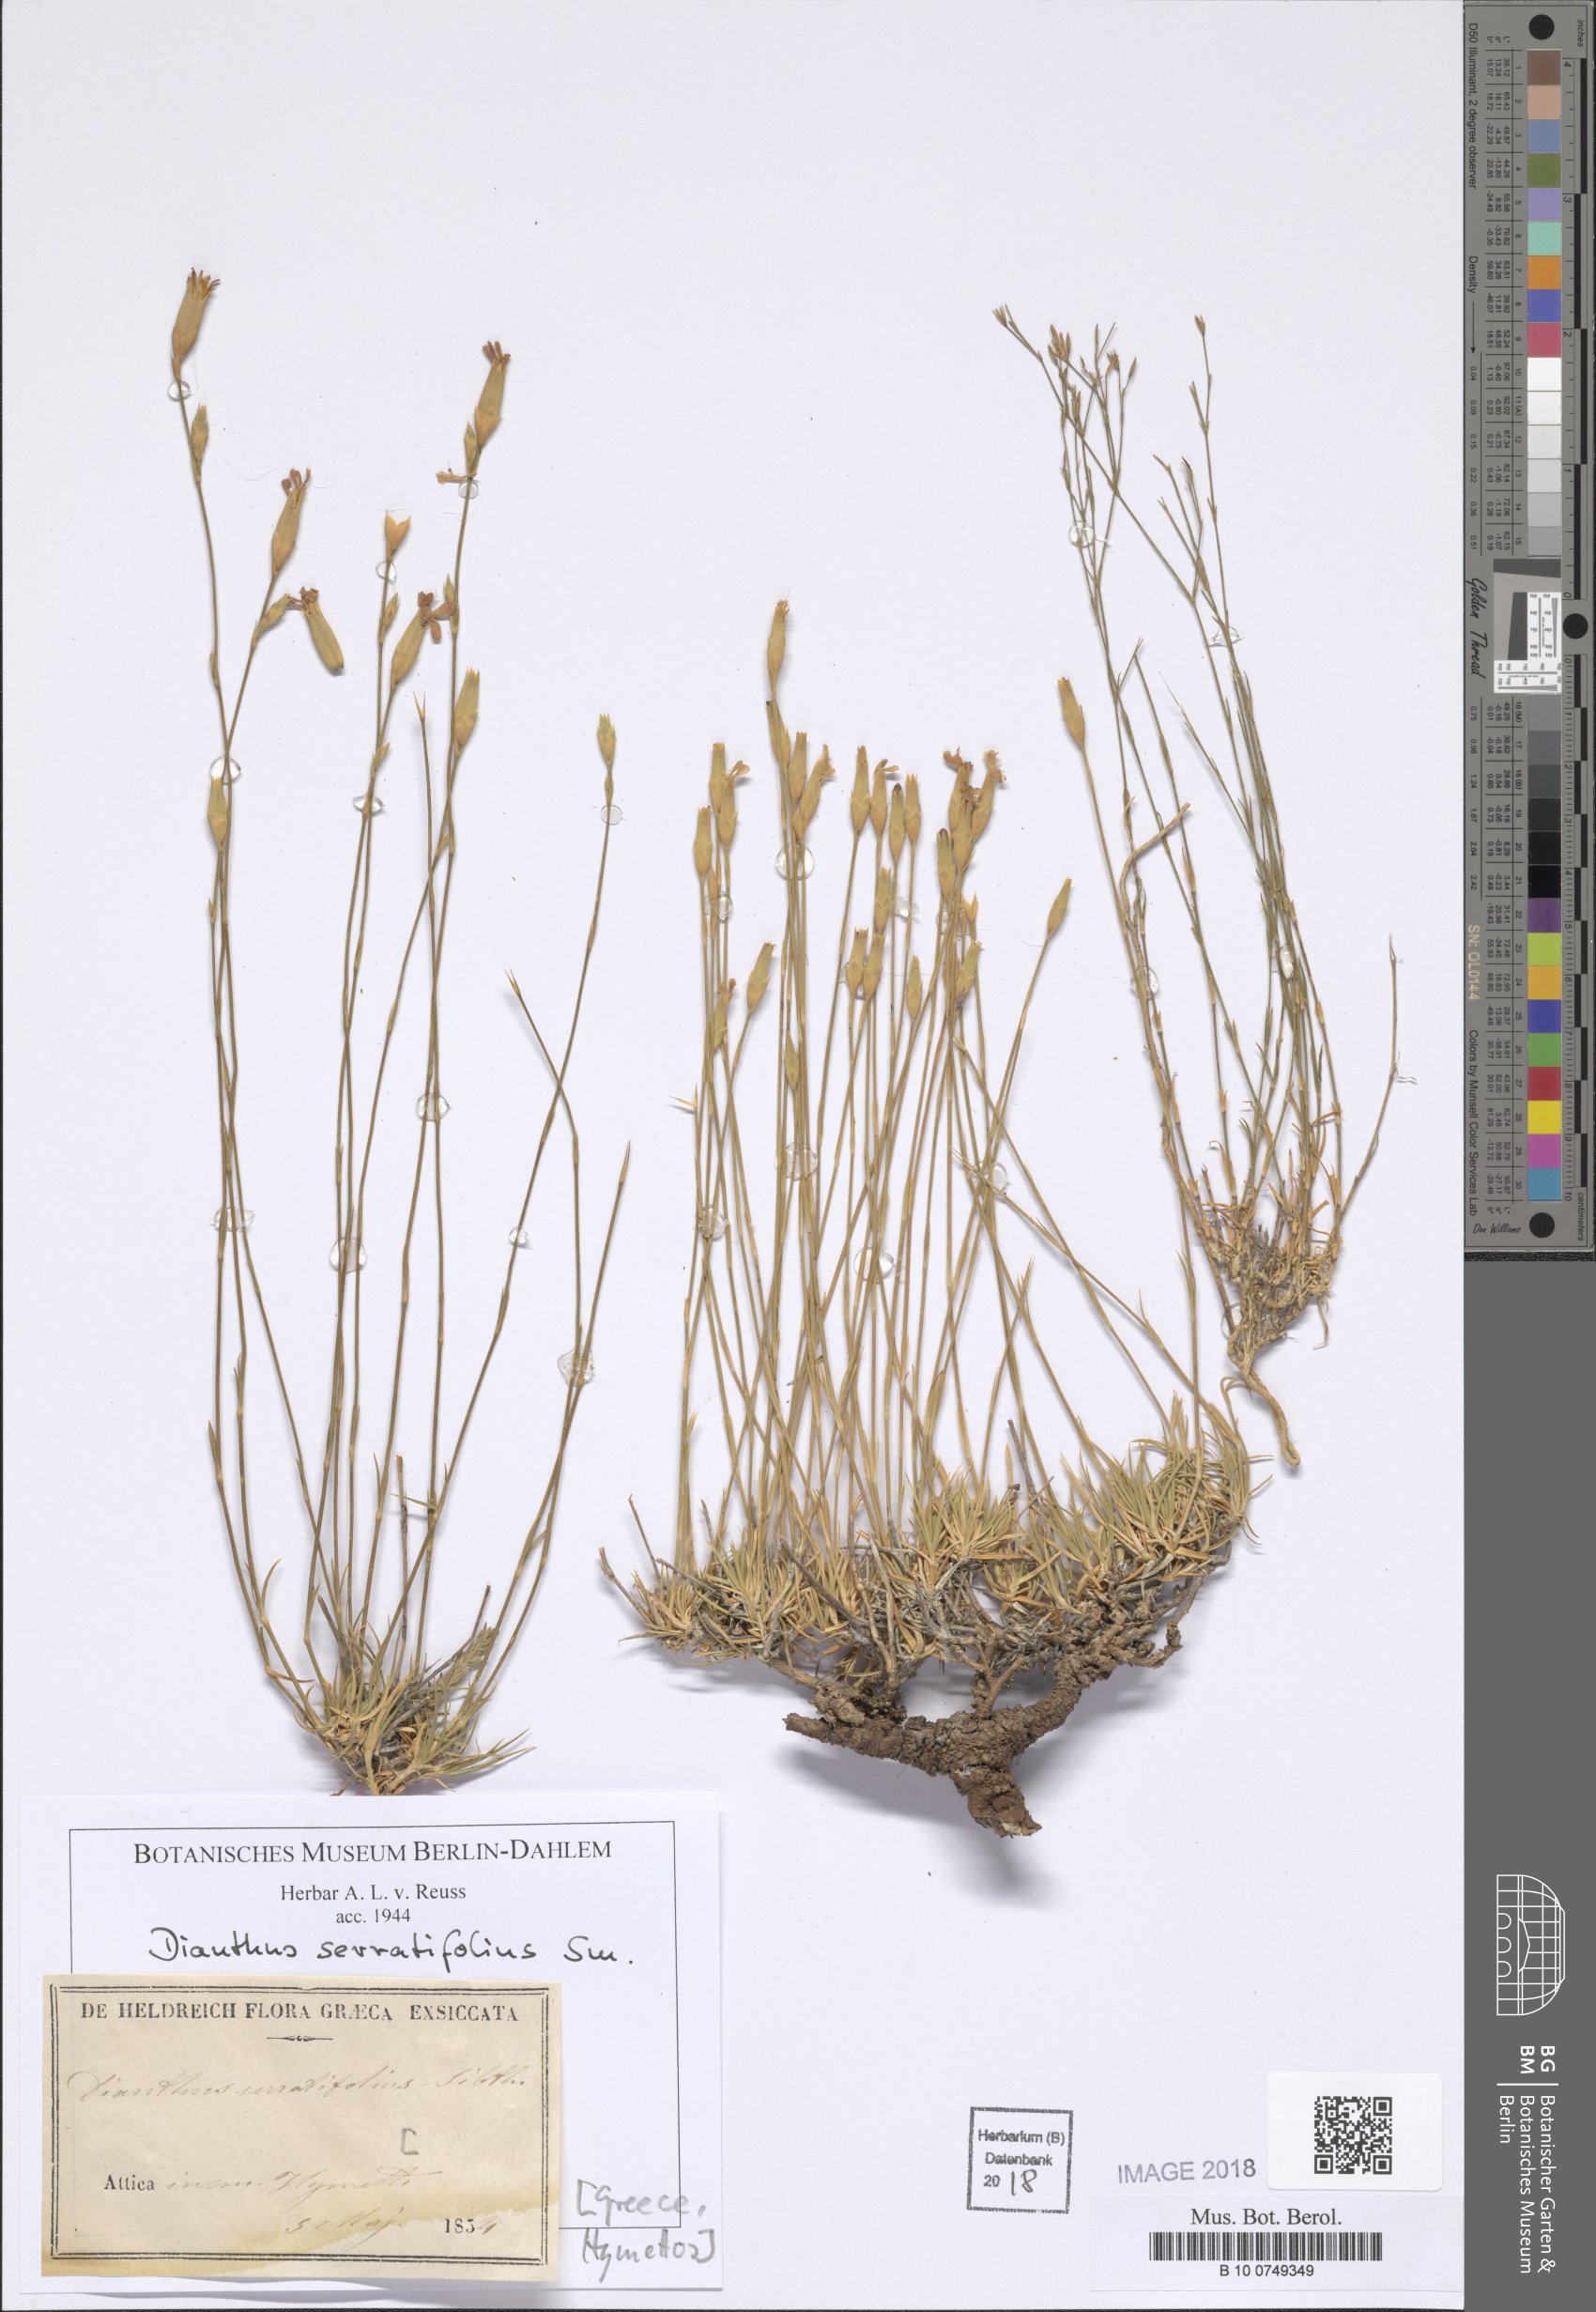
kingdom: Plantae
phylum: Tracheophyta
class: Magnoliopsida
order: Caryophyllales
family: Caryophyllaceae
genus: Dianthus
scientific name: Dianthus serratifolius
